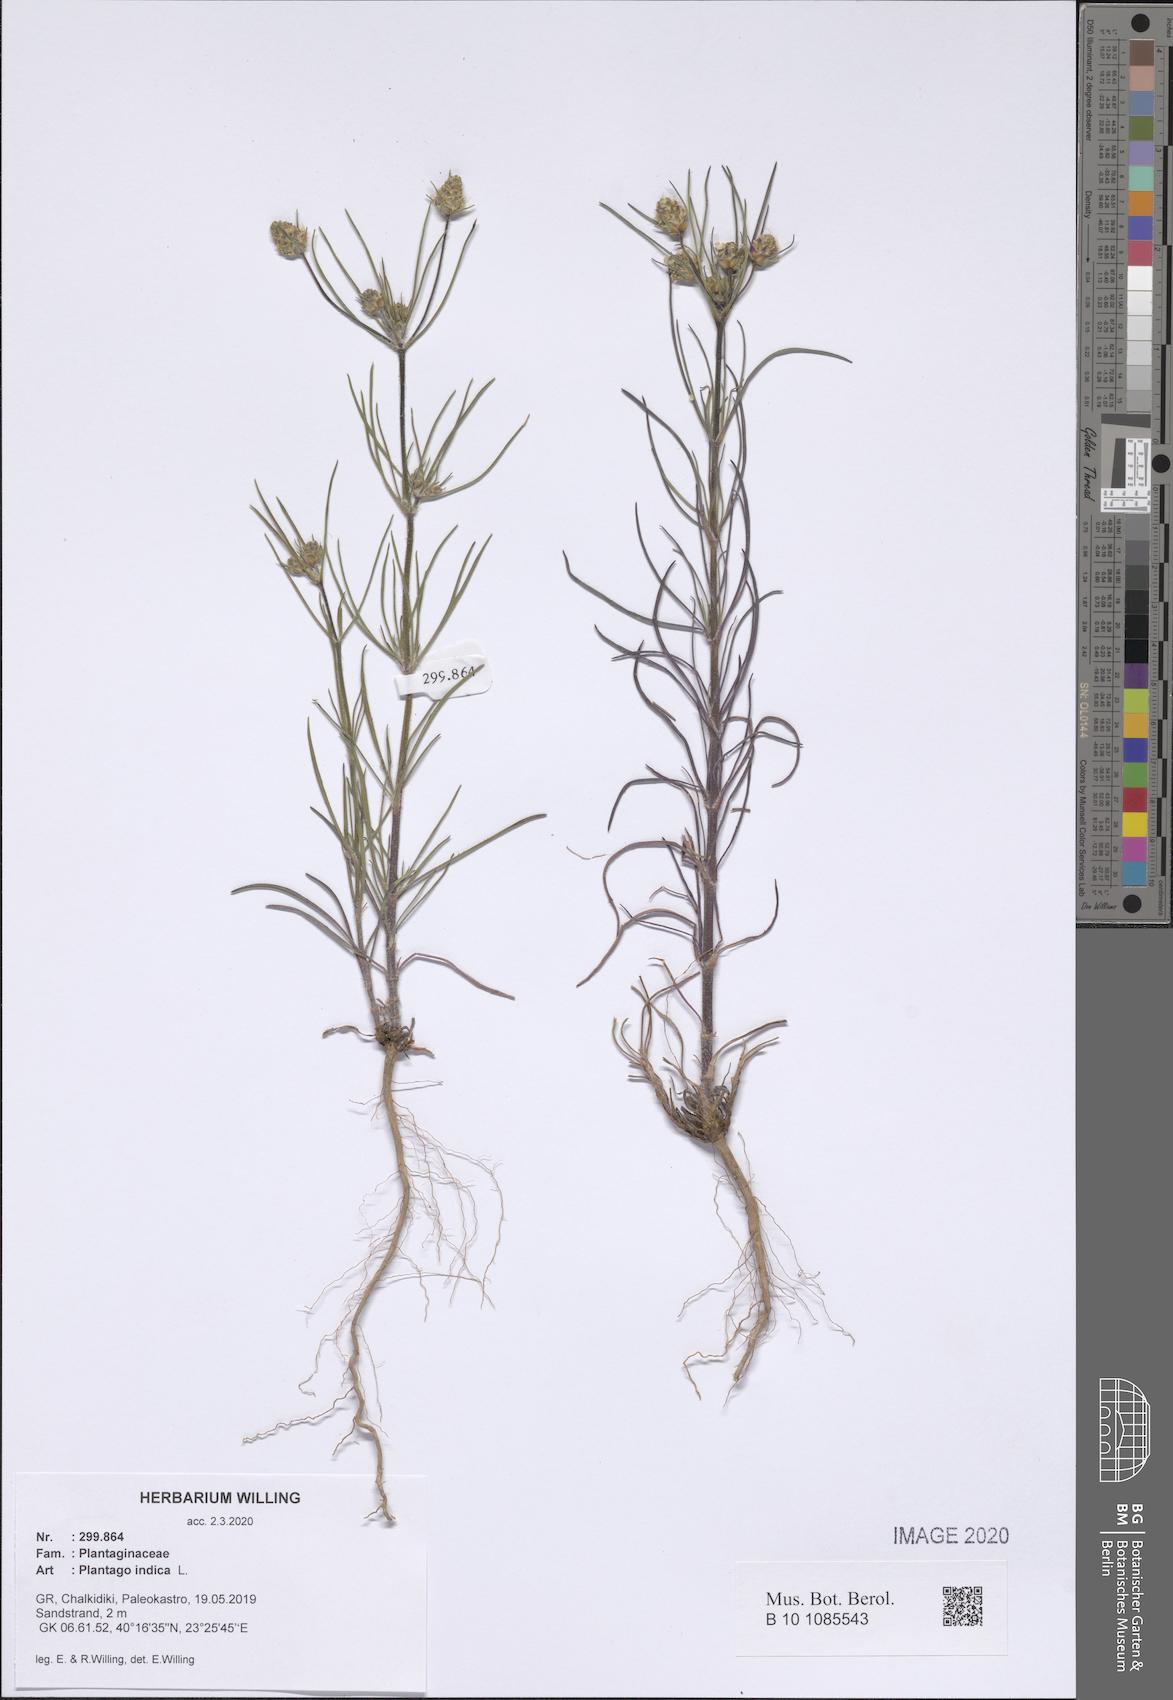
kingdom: Plantae
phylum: Tracheophyta
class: Magnoliopsida
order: Lamiales
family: Plantaginaceae
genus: Plantago
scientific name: Plantago arenaria
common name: Branched plantain
